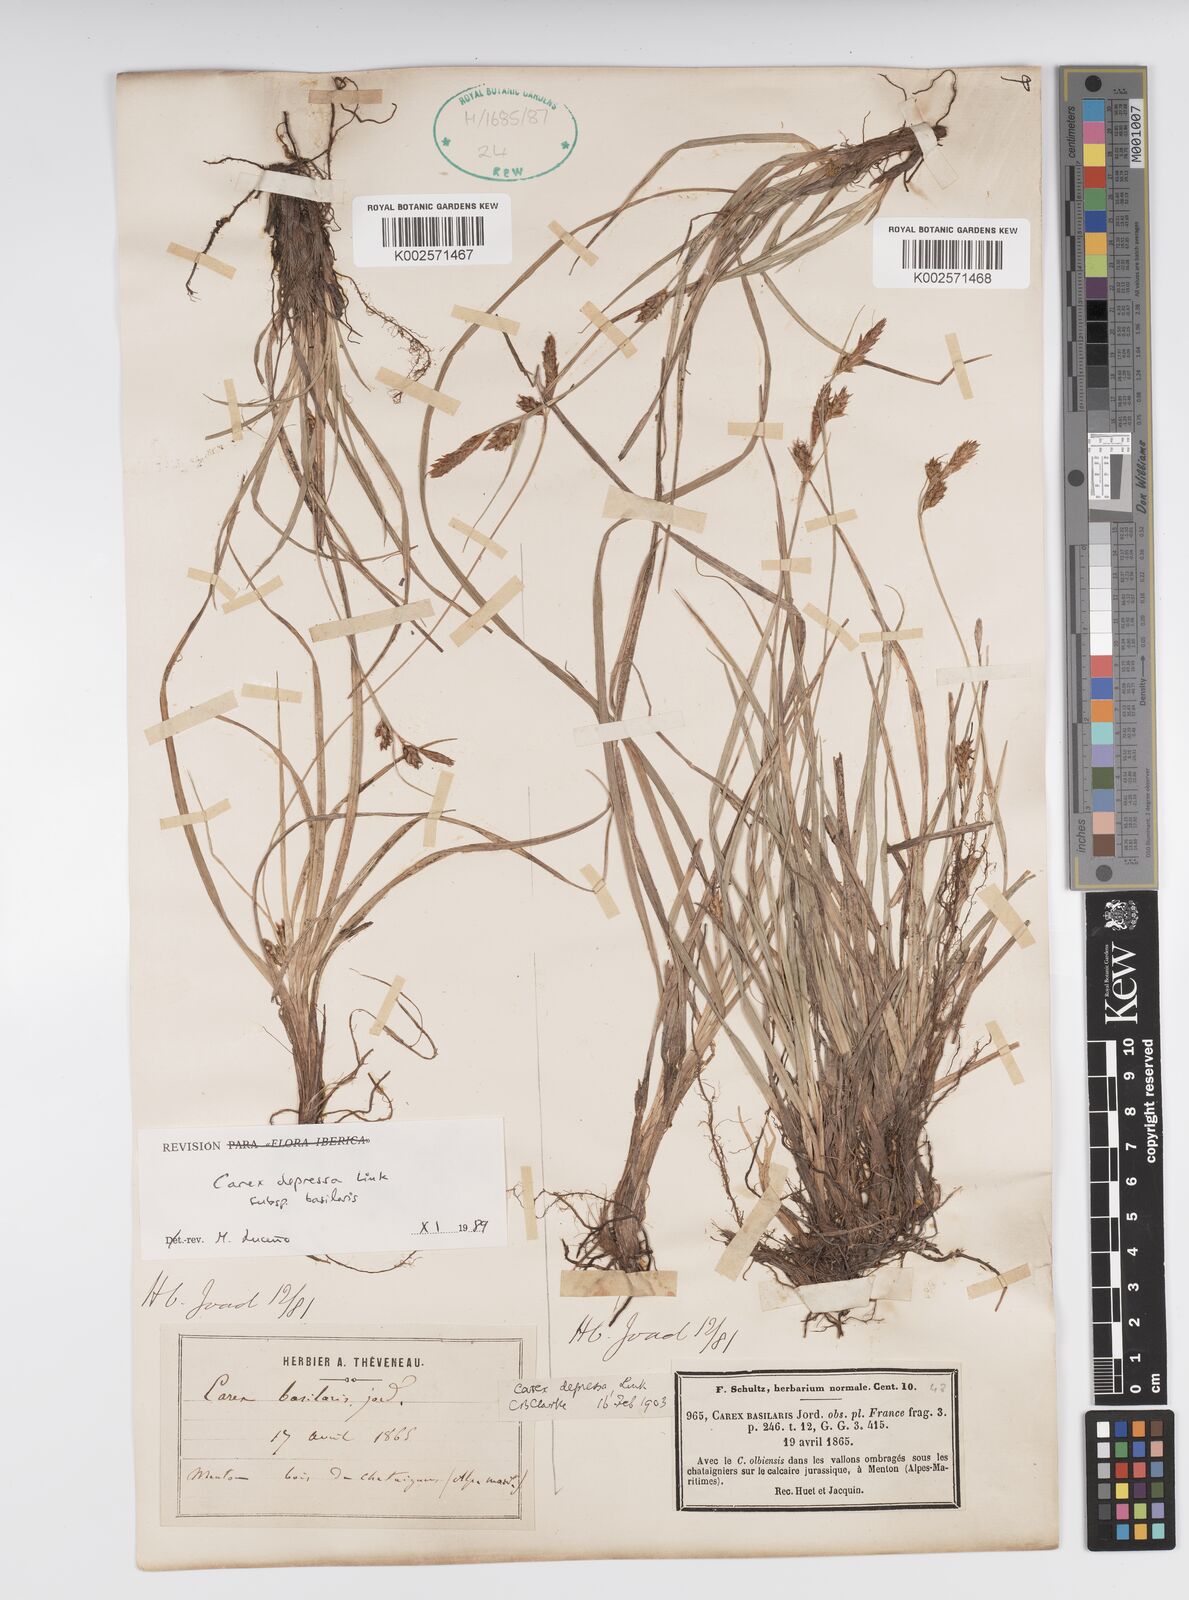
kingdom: Plantae
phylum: Tracheophyta
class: Liliopsida
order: Poales
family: Cyperaceae
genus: Carex
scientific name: Carex depressa
